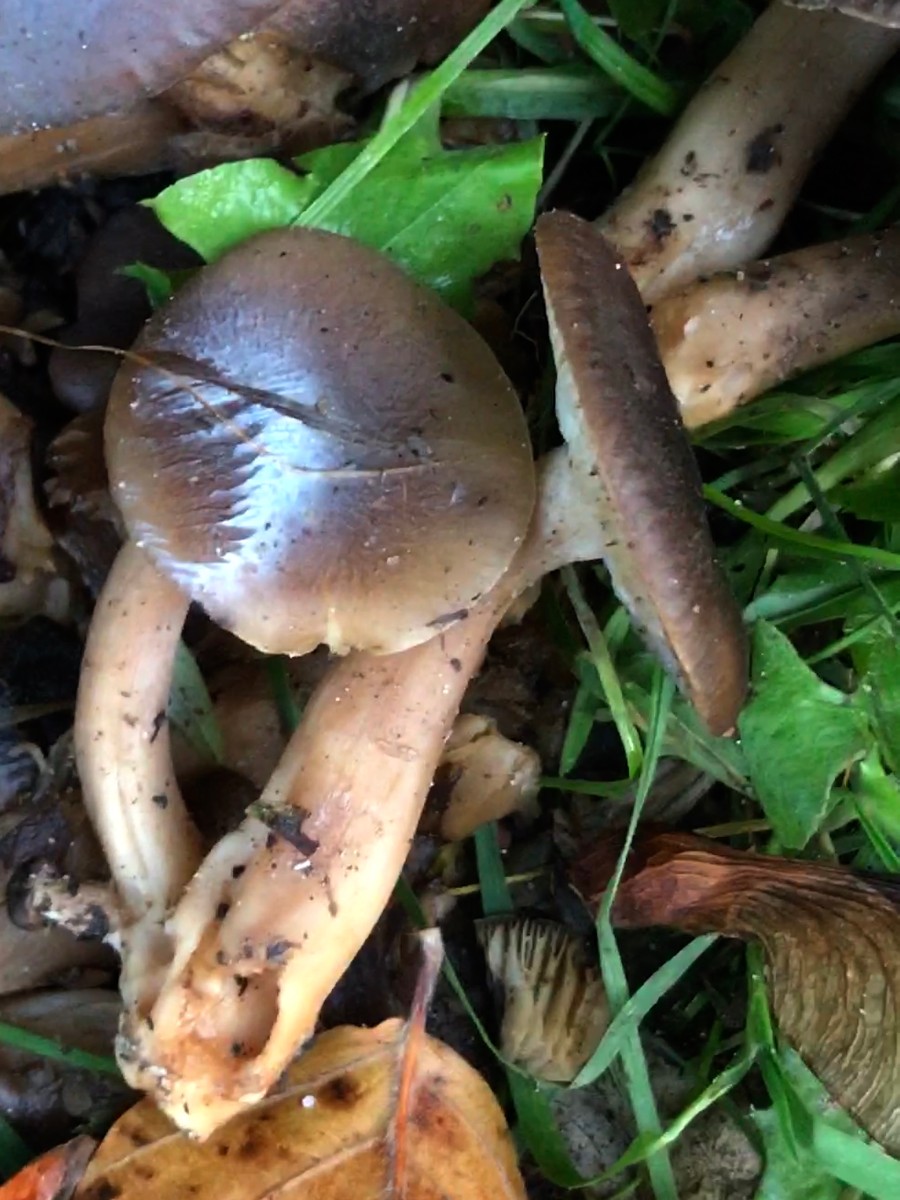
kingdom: Fungi
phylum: Basidiomycota
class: Agaricomycetes
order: Agaricales
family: Lyophyllaceae
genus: Lyophyllum
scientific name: Lyophyllum decastes
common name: Clustered domecap
